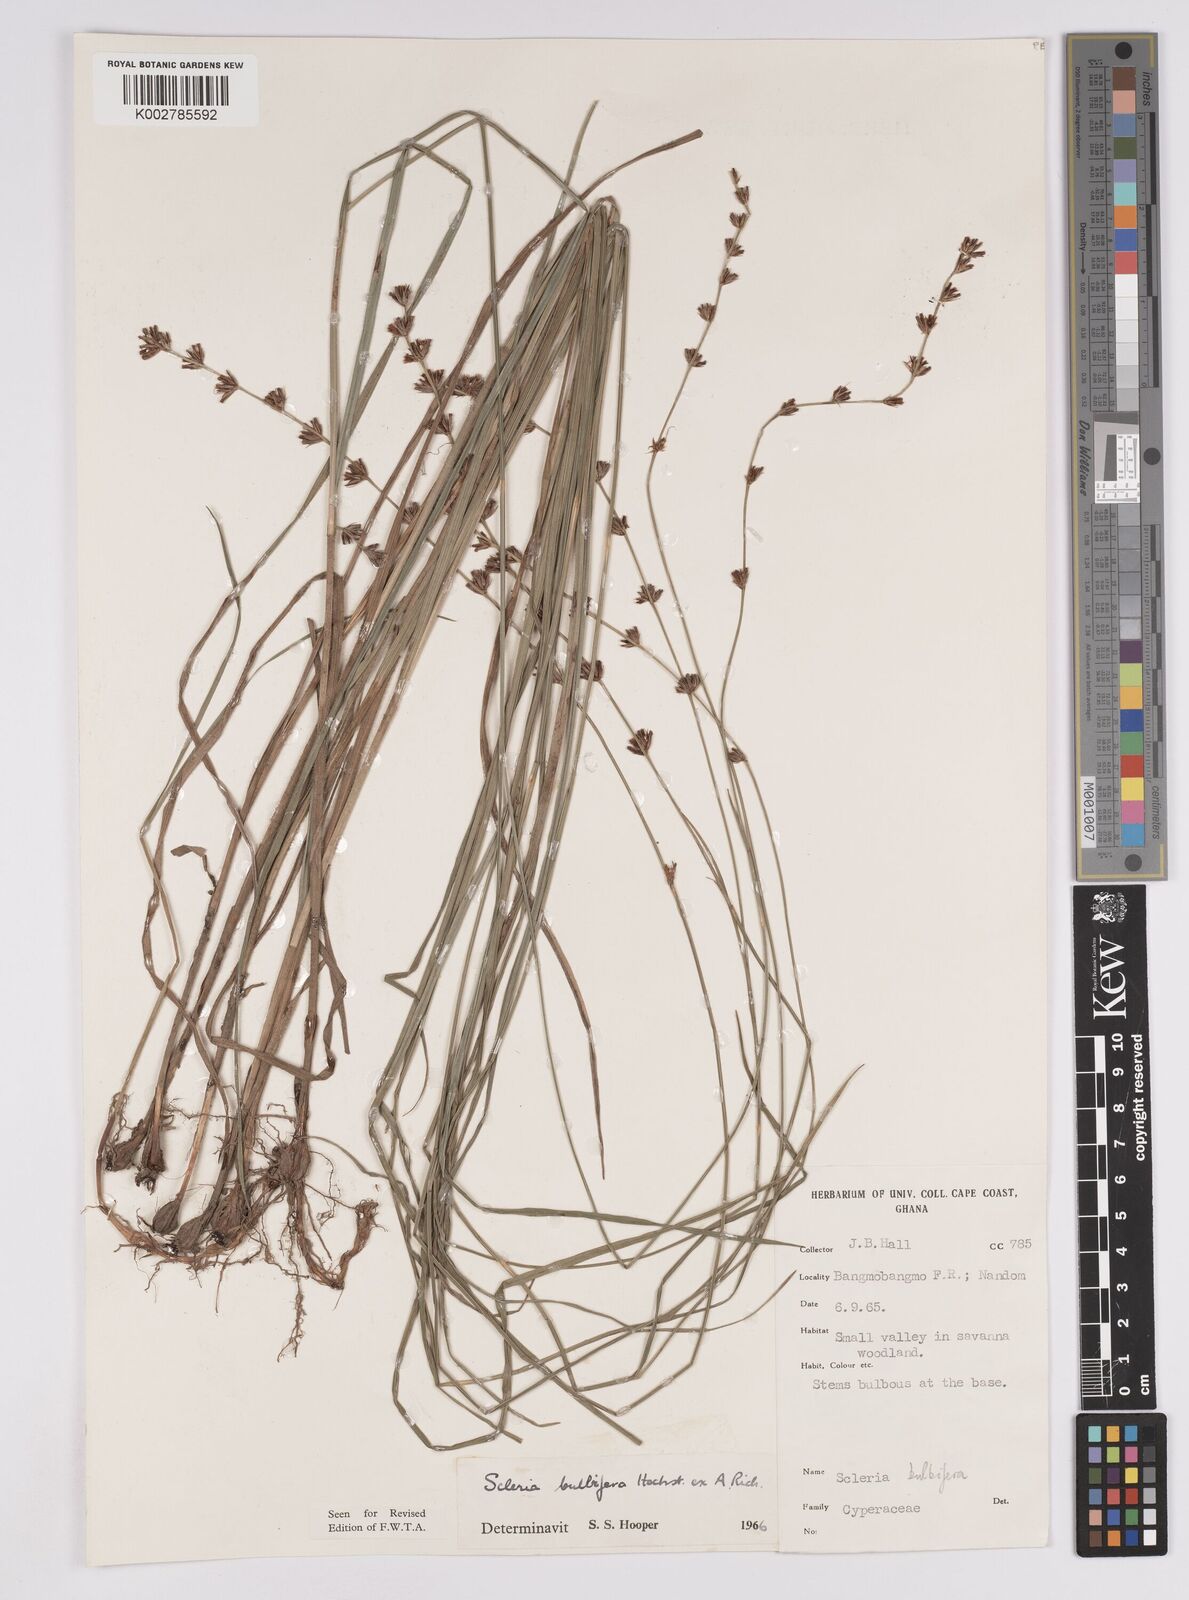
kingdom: Plantae
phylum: Tracheophyta
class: Liliopsida
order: Poales
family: Cyperaceae
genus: Scleria
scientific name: Scleria bulbifera
